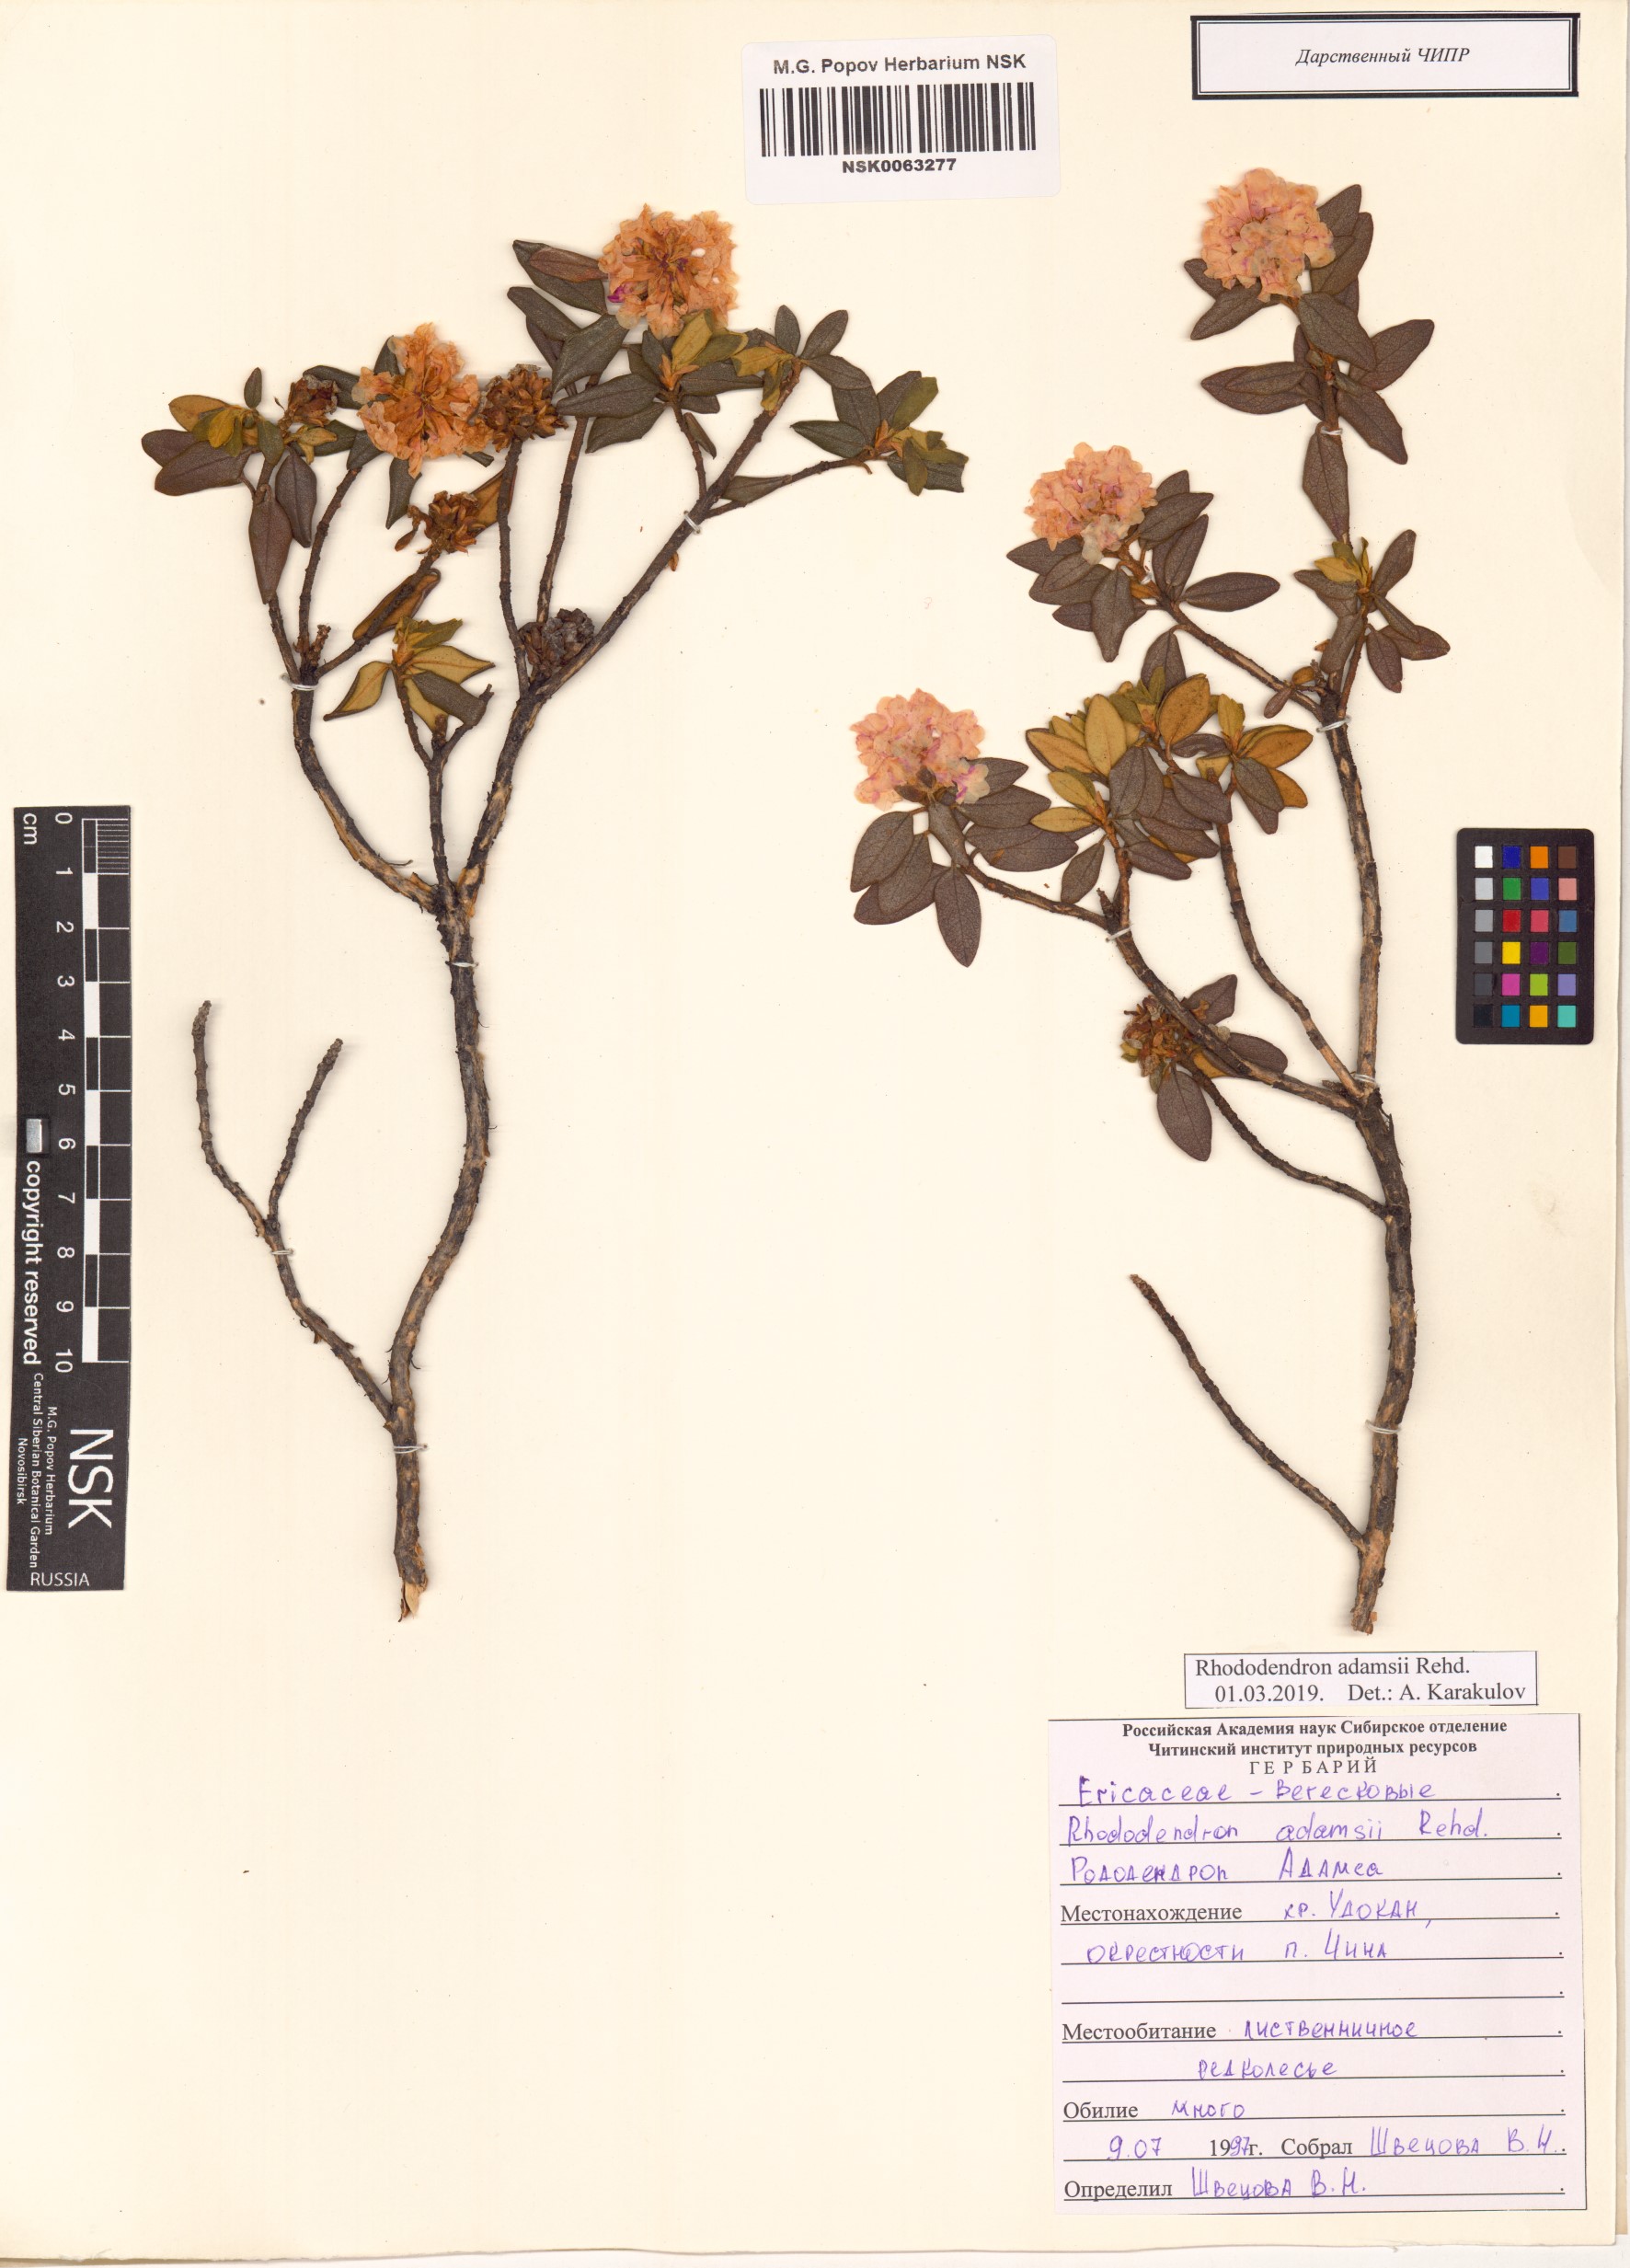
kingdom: Plantae
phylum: Tracheophyta
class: Magnoliopsida
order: Ericales
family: Ericaceae
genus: Rhododendron
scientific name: Rhododendron adamsii
